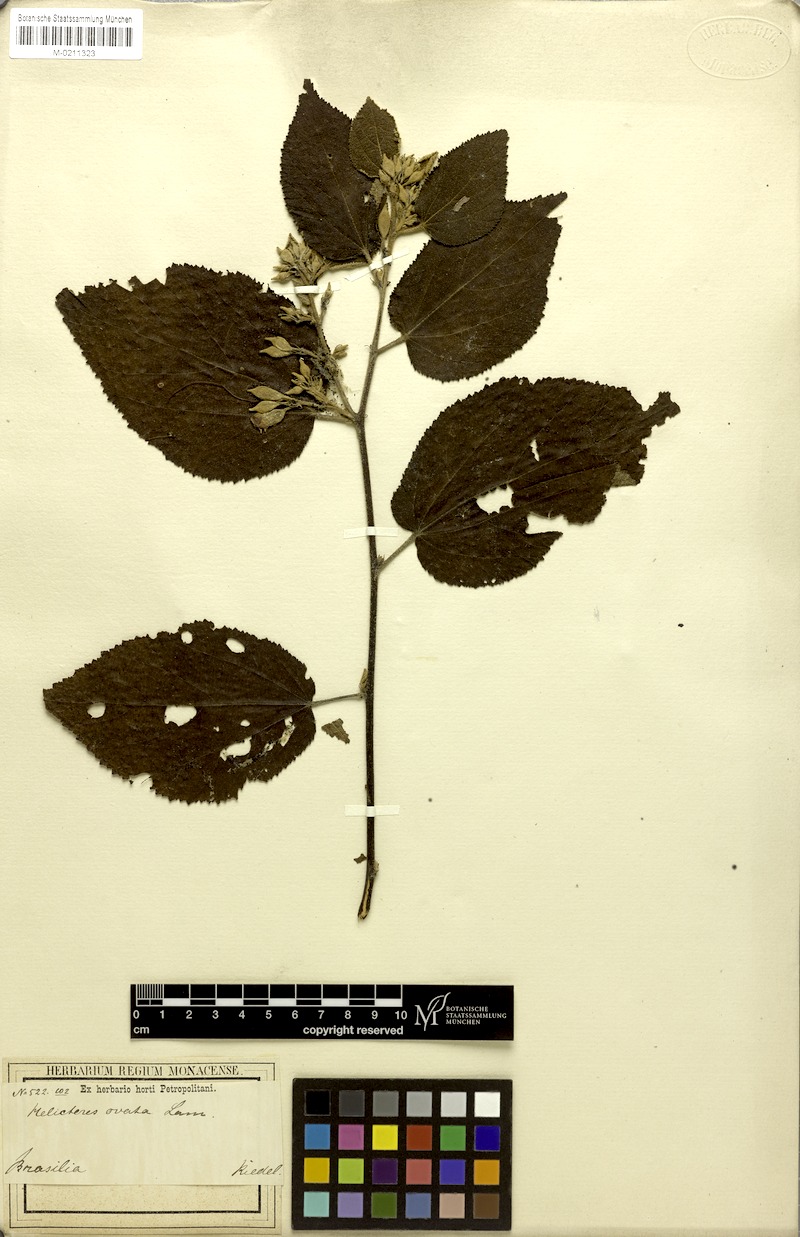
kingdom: Plantae
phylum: Tracheophyta
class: Magnoliopsida
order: Malvales
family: Malvaceae
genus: Helicteres
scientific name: Helicteres ovata
